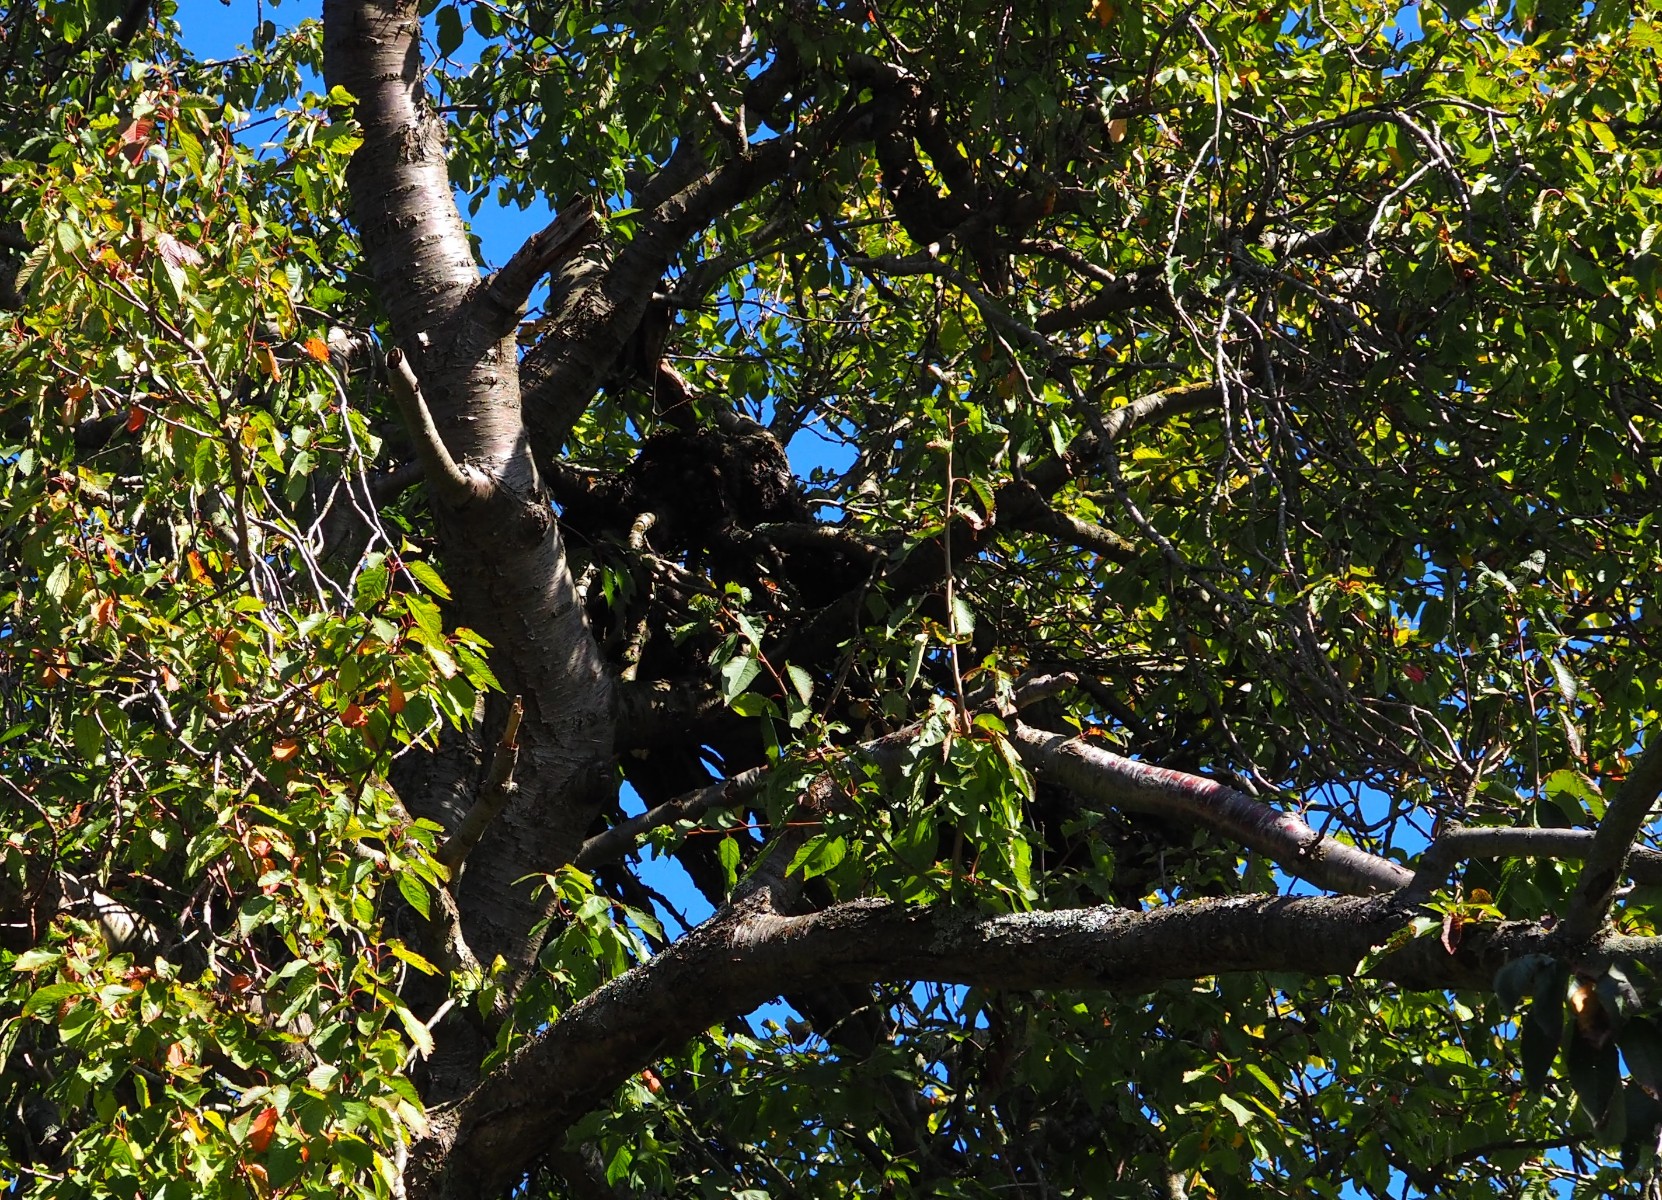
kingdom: Fungi
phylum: Ascomycota
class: Taphrinomycetes
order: Taphrinales
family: Taphrinaceae
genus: Taphrina
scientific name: Taphrina wiesneri
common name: Cherry leaf curl
